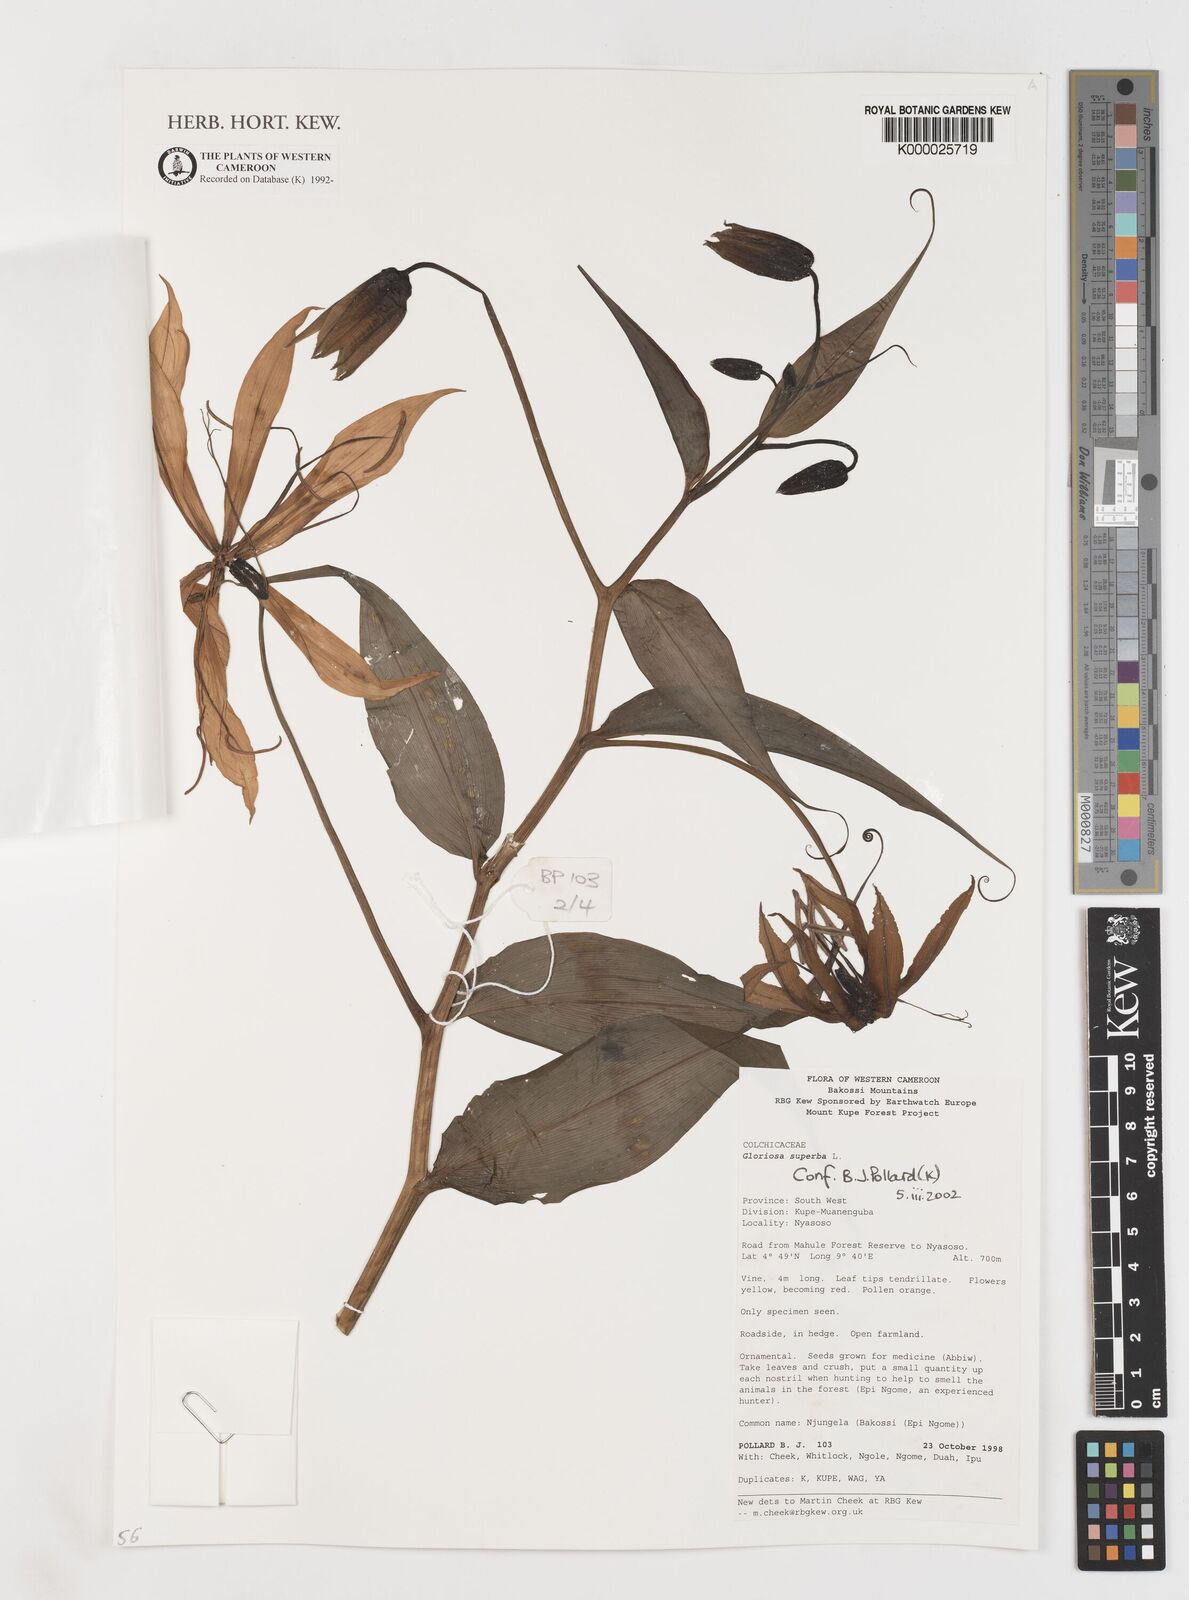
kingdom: Plantae
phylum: Tracheophyta
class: Liliopsida
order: Liliales
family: Colchicaceae
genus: Gloriosa
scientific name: Gloriosa superba
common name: Flame lily
